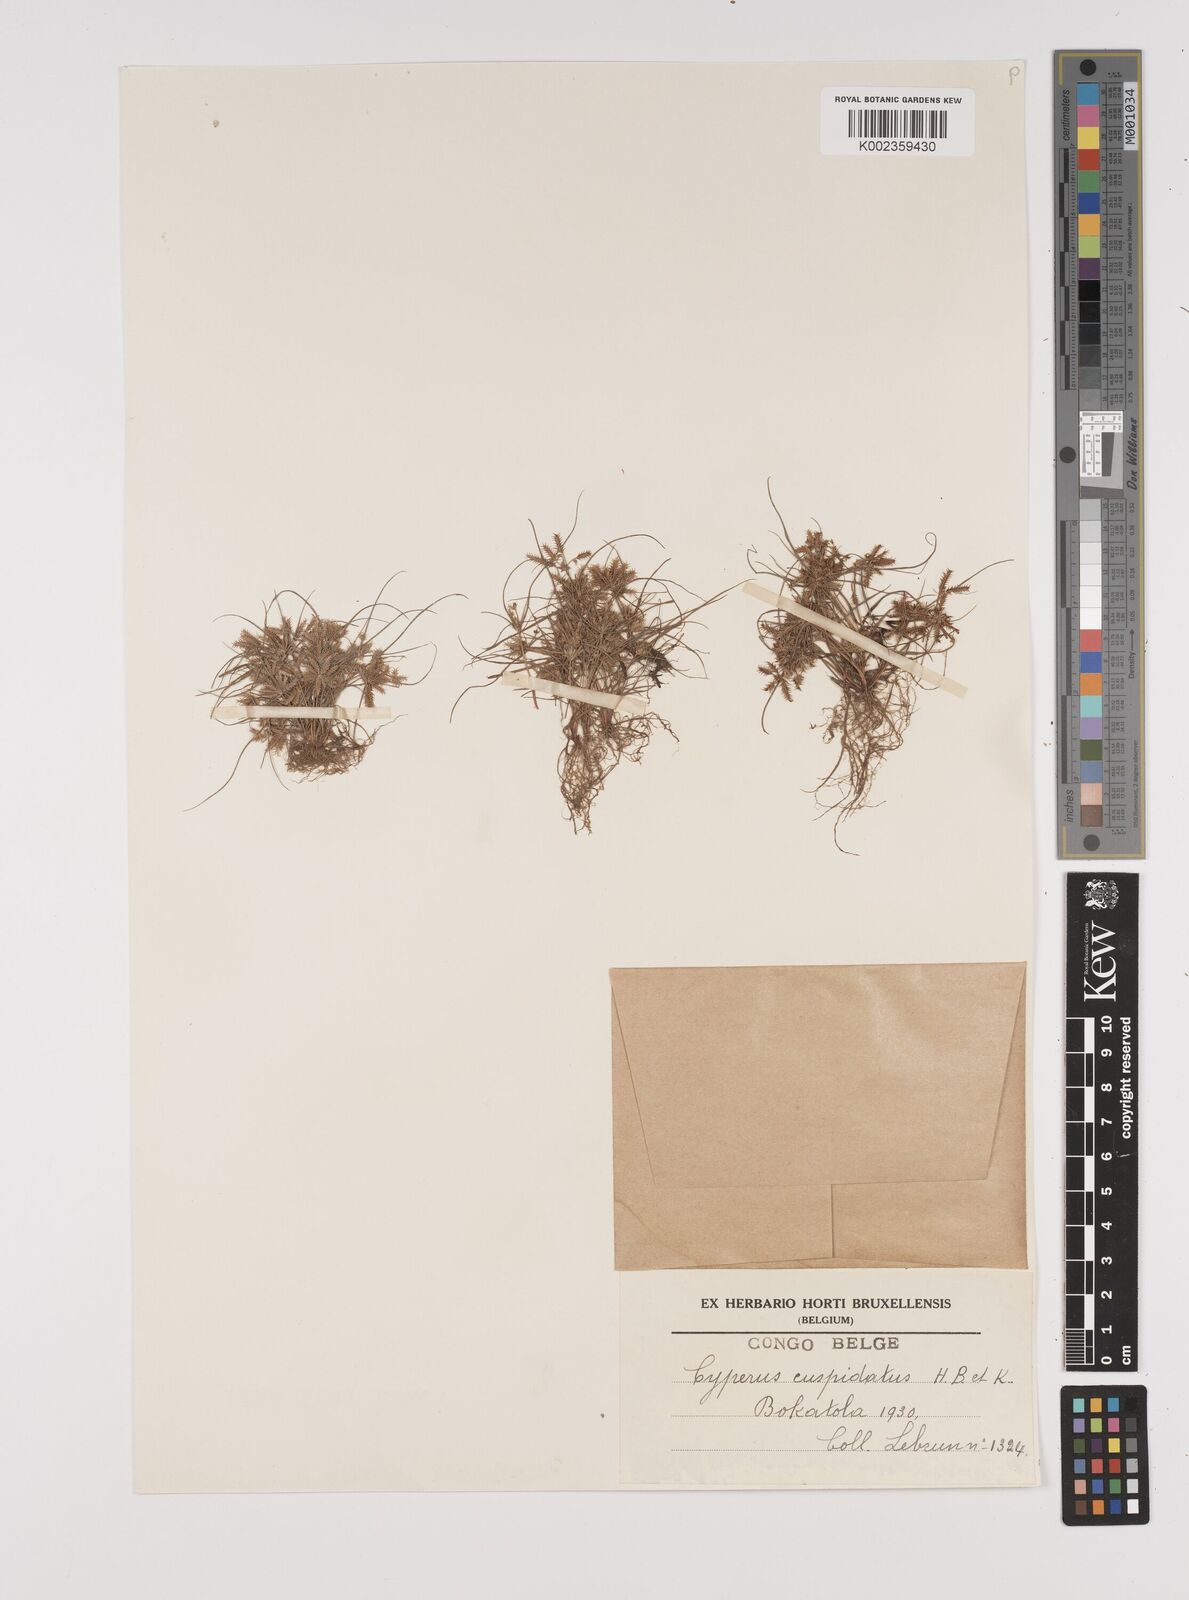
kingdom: Plantae
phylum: Tracheophyta
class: Liliopsida
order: Poales
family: Cyperaceae
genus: Cyperus
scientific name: Cyperus cuspidatus
